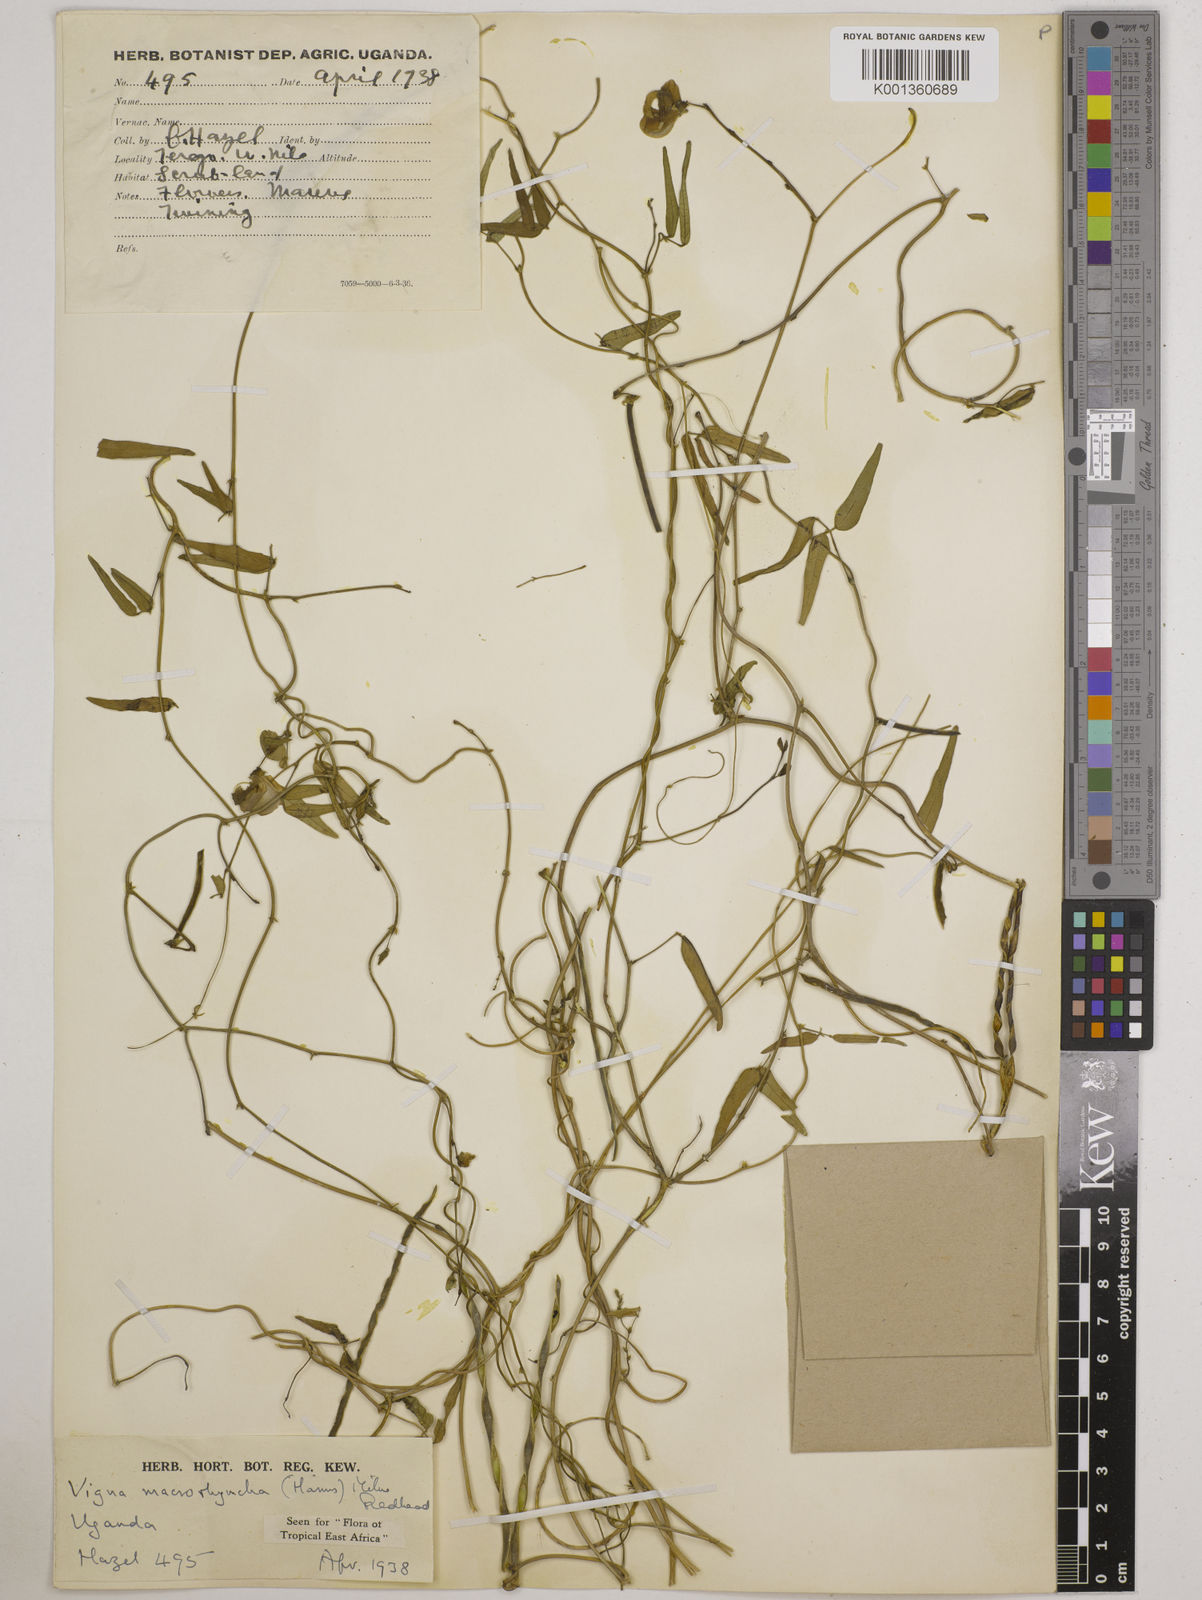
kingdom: Plantae
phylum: Tracheophyta
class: Magnoliopsida
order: Fabales
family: Fabaceae
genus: Wajira
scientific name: Wajira grahamiana
